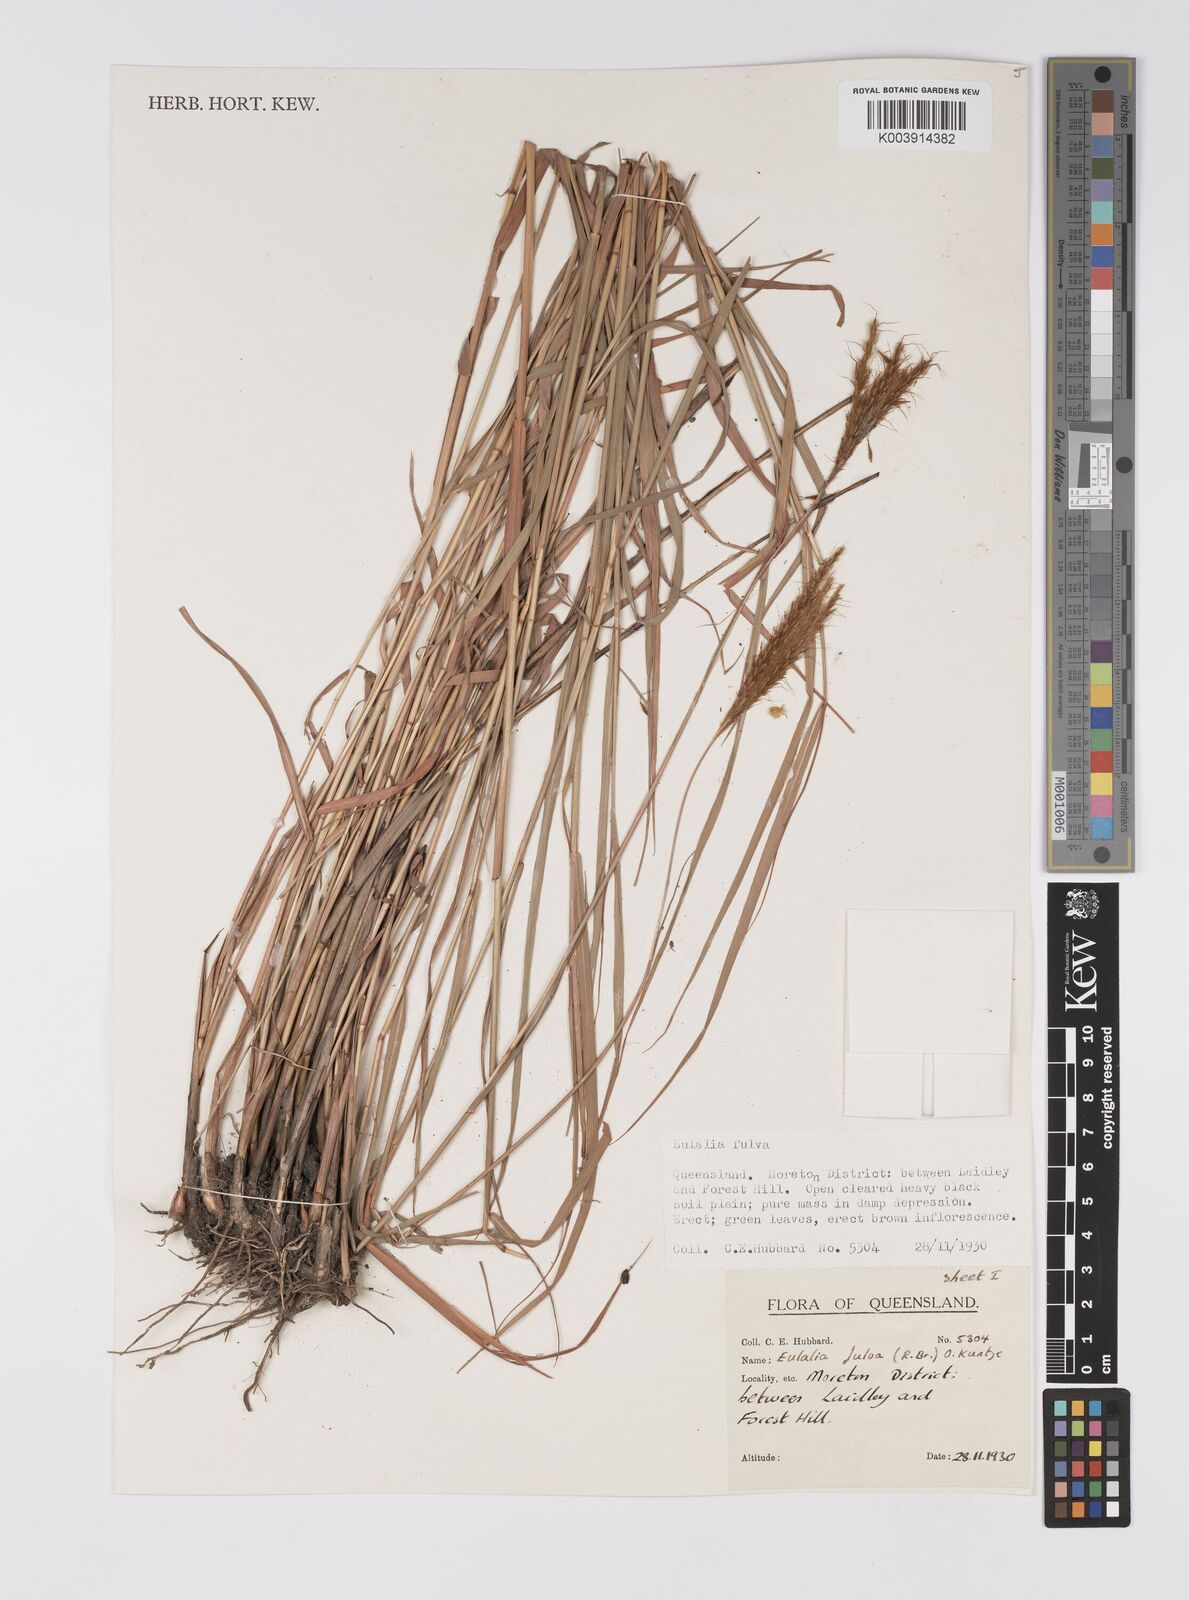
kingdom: Plantae
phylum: Tracheophyta
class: Liliopsida
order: Poales
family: Poaceae
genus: Eulalia
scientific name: Eulalia aurea
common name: Silky browntop
